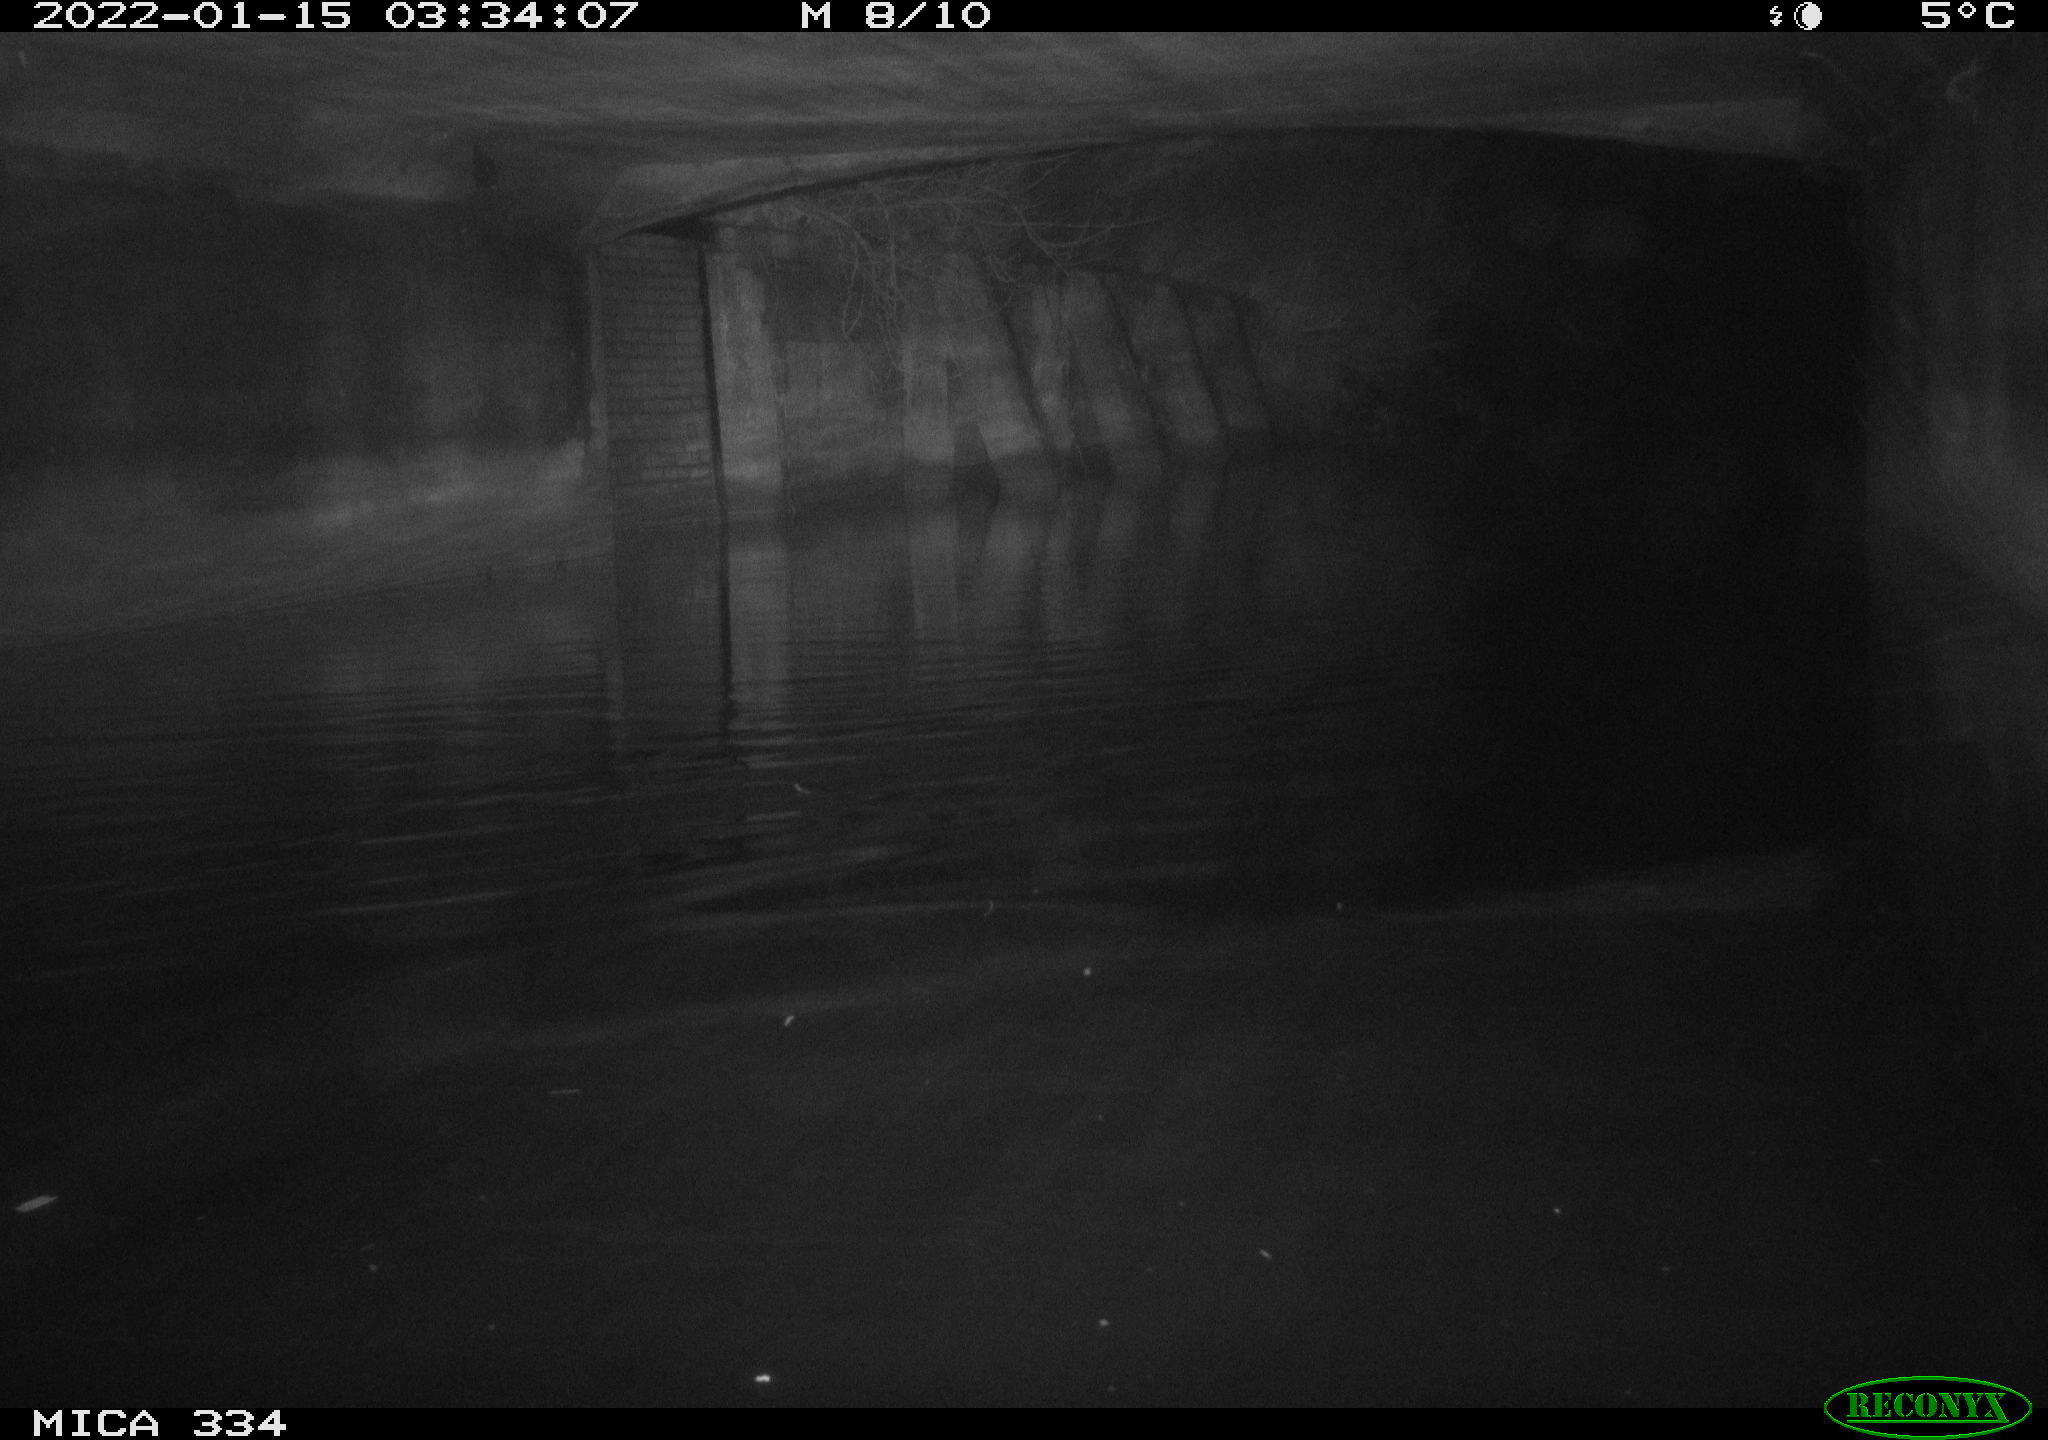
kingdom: Animalia
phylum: Chordata
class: Aves
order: Anseriformes
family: Anatidae
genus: Anas
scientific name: Anas platyrhynchos
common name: Mallard
